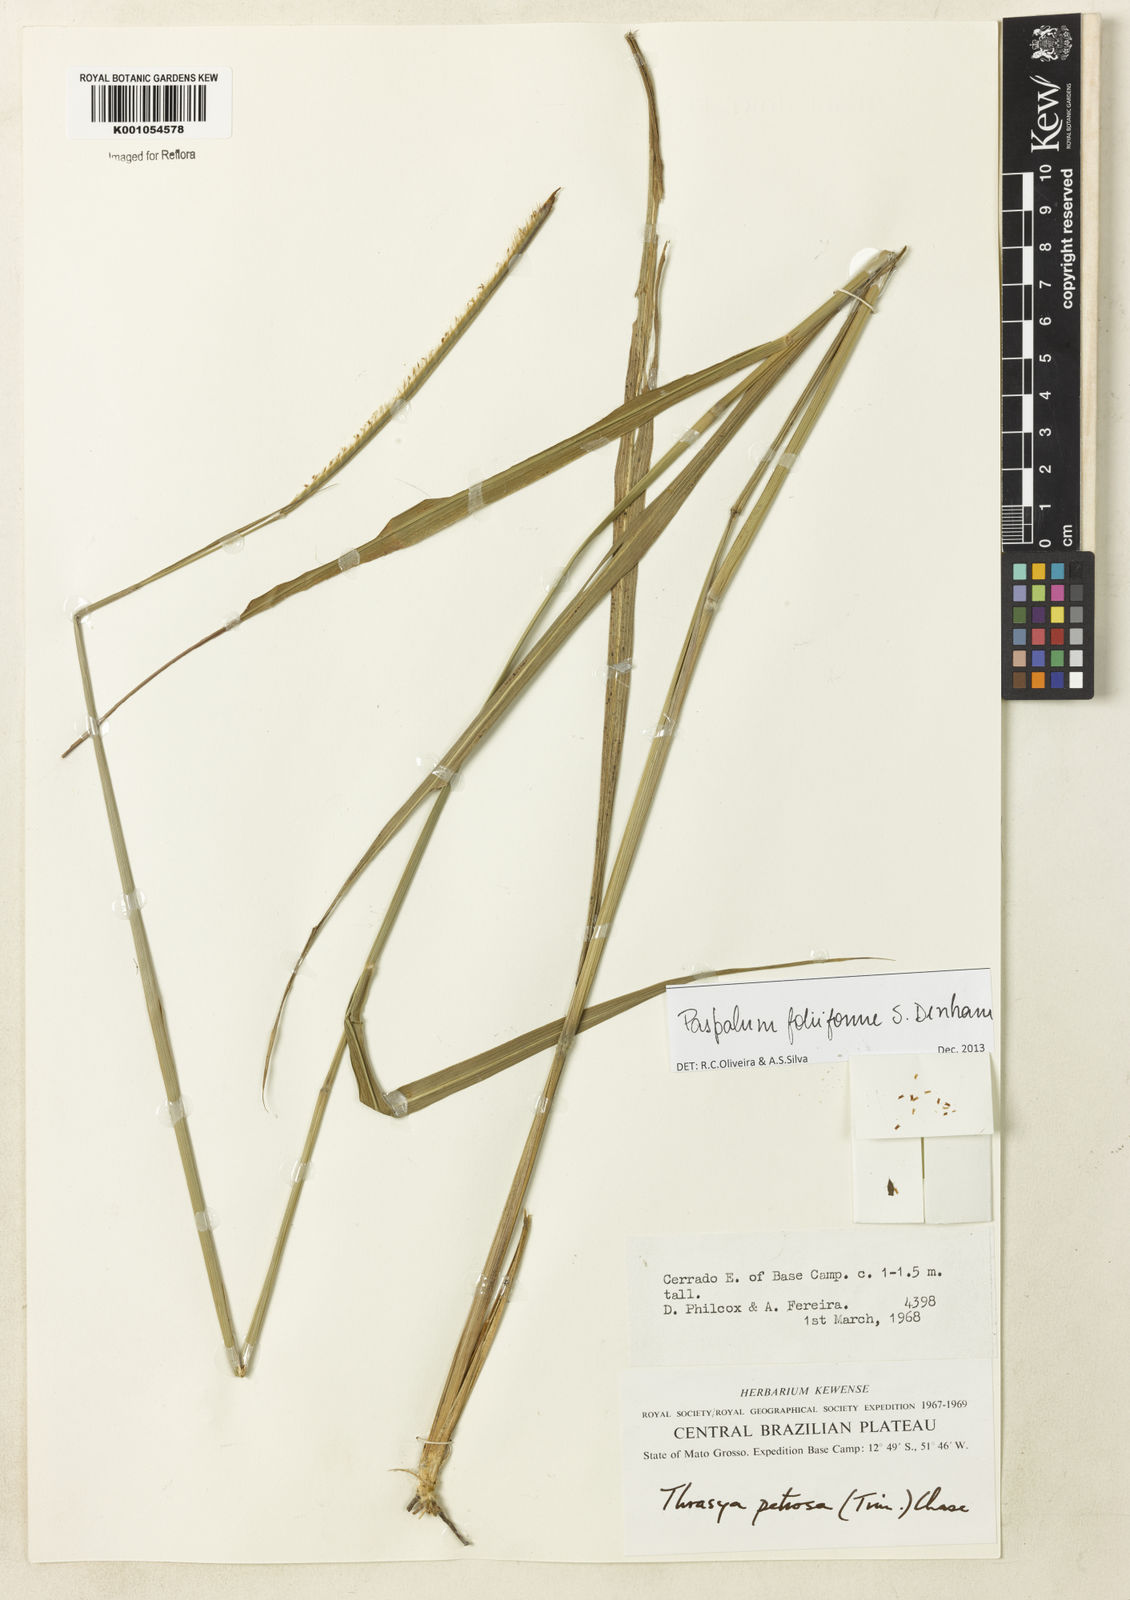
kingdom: Plantae
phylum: Tracheophyta
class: Liliopsida
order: Poales
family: Poaceae
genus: Paspalum
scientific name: Paspalum foliiforme
